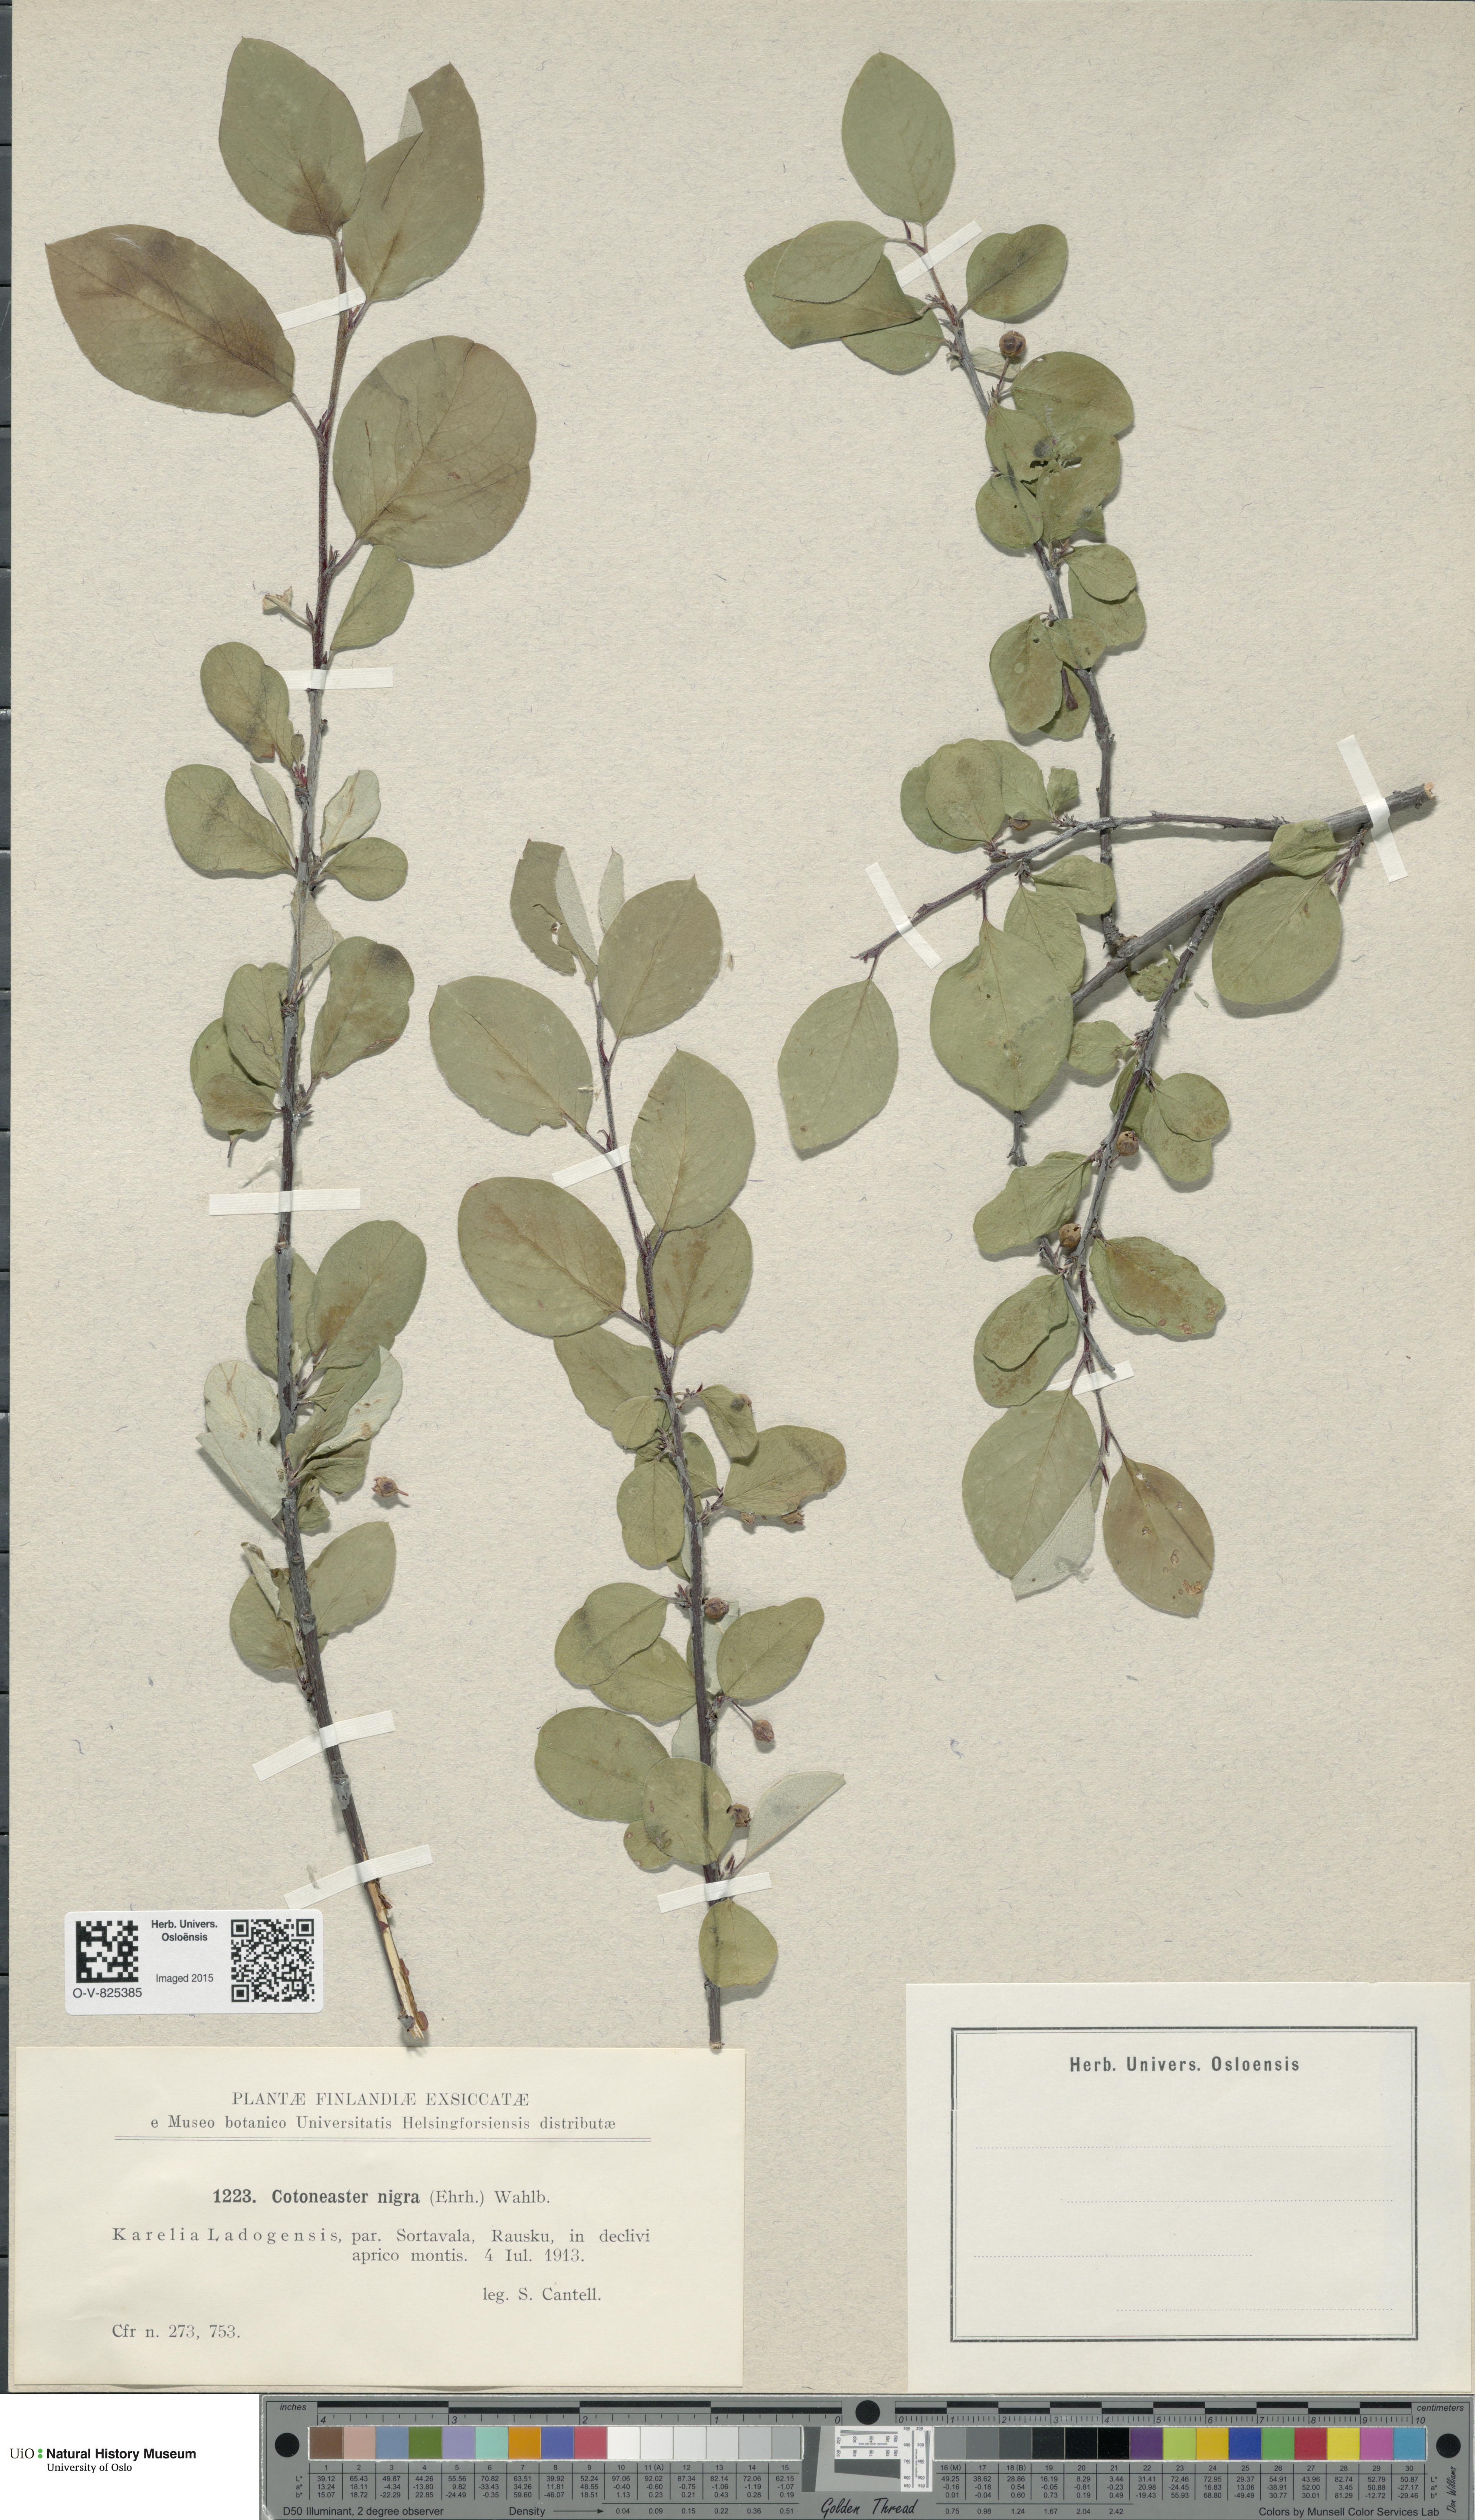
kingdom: Plantae
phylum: Tracheophyta
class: Magnoliopsida
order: Rosales
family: Rosaceae
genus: Cotoneaster
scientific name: Cotoneaster niger
